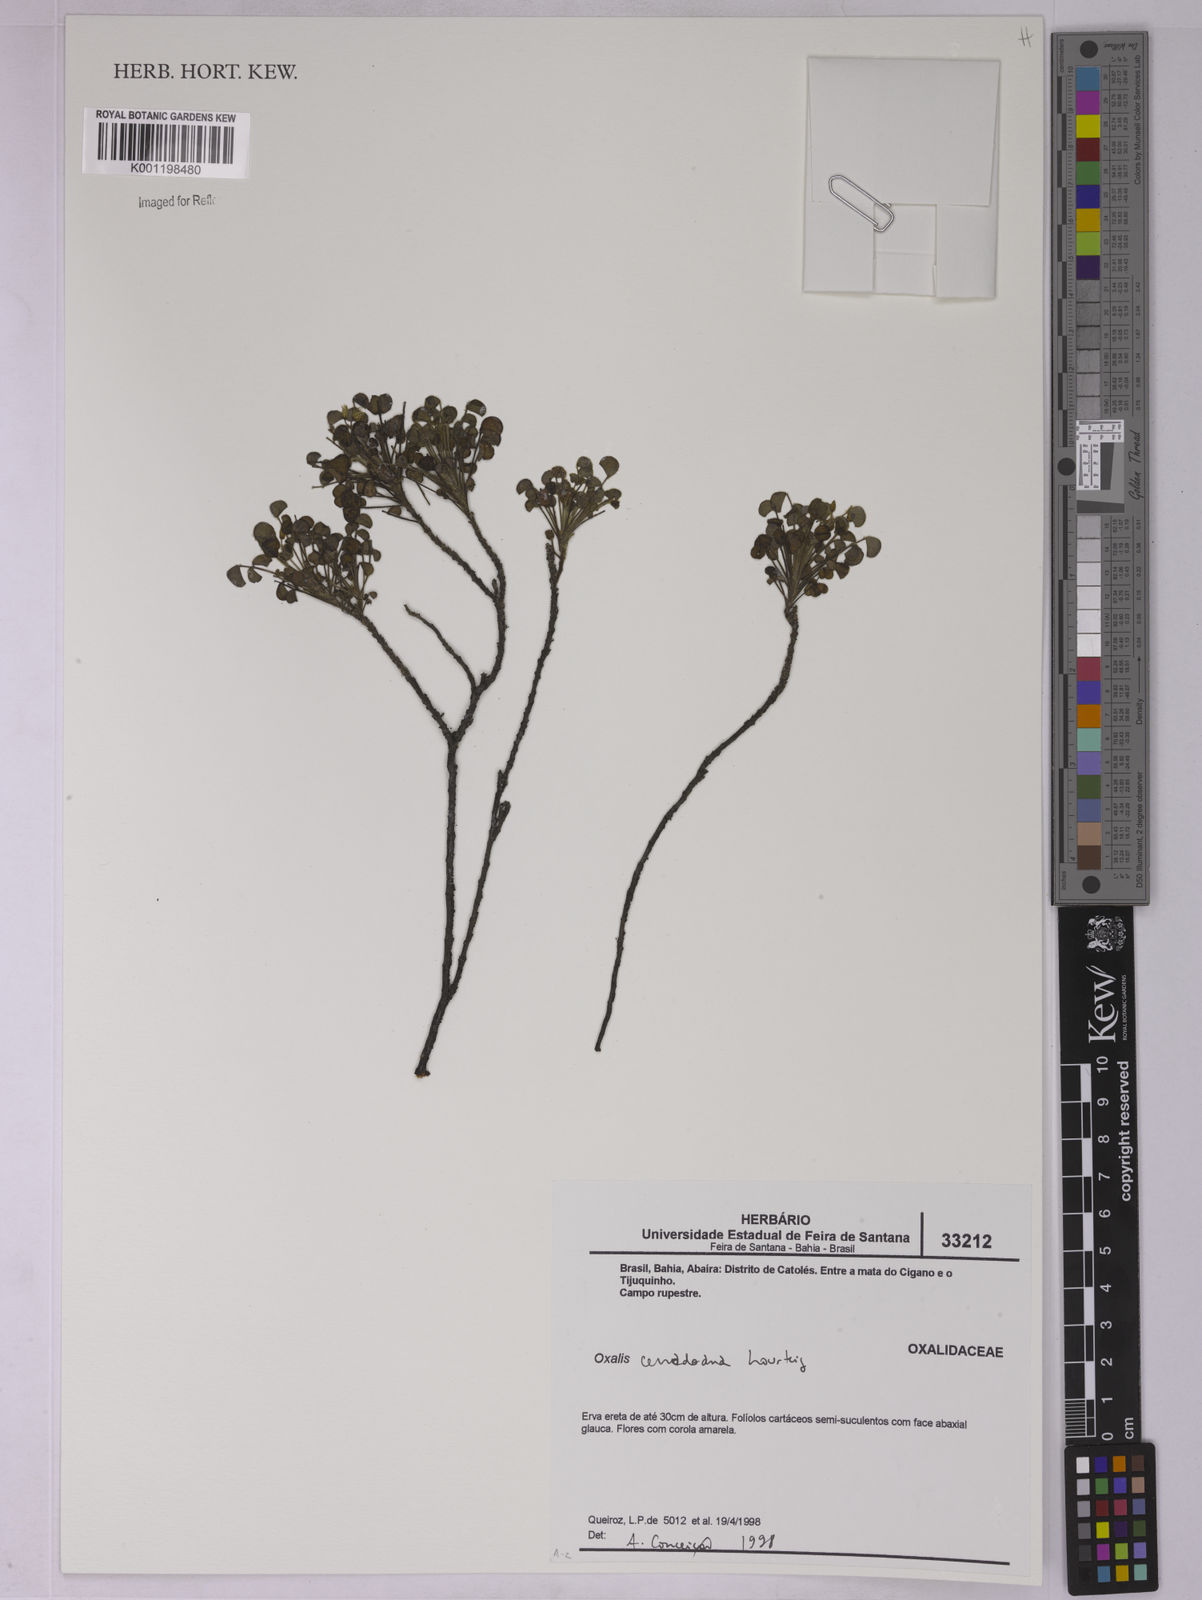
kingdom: Plantae
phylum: Tracheophyta
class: Magnoliopsida
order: Oxalidales
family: Oxalidaceae
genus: Oxalis
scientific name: Oxalis cerradoana
